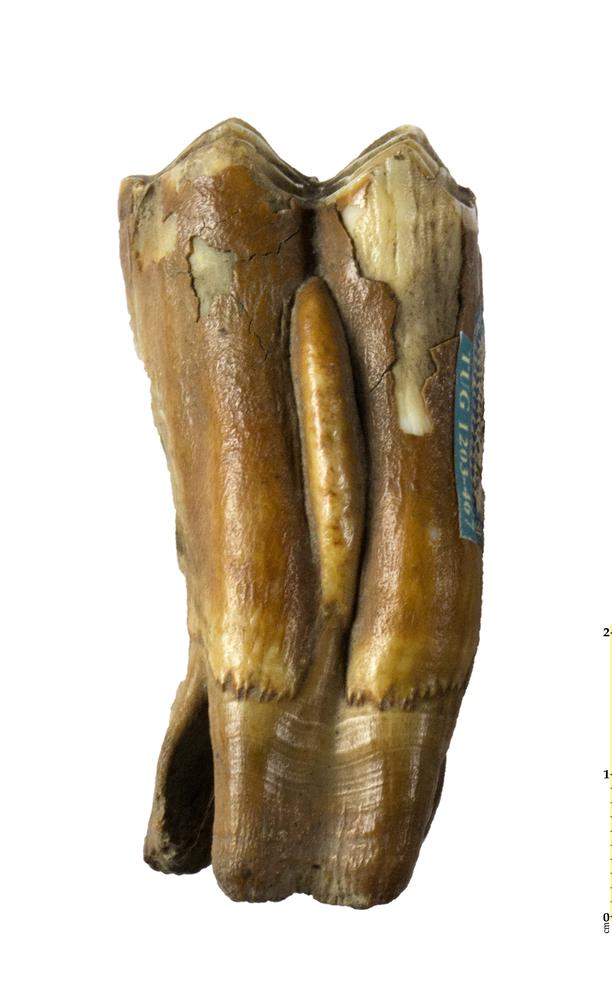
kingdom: Animalia
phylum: Chordata
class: Mammalia
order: Artiodactyla
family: Bovidae
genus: Bos
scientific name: Bos
